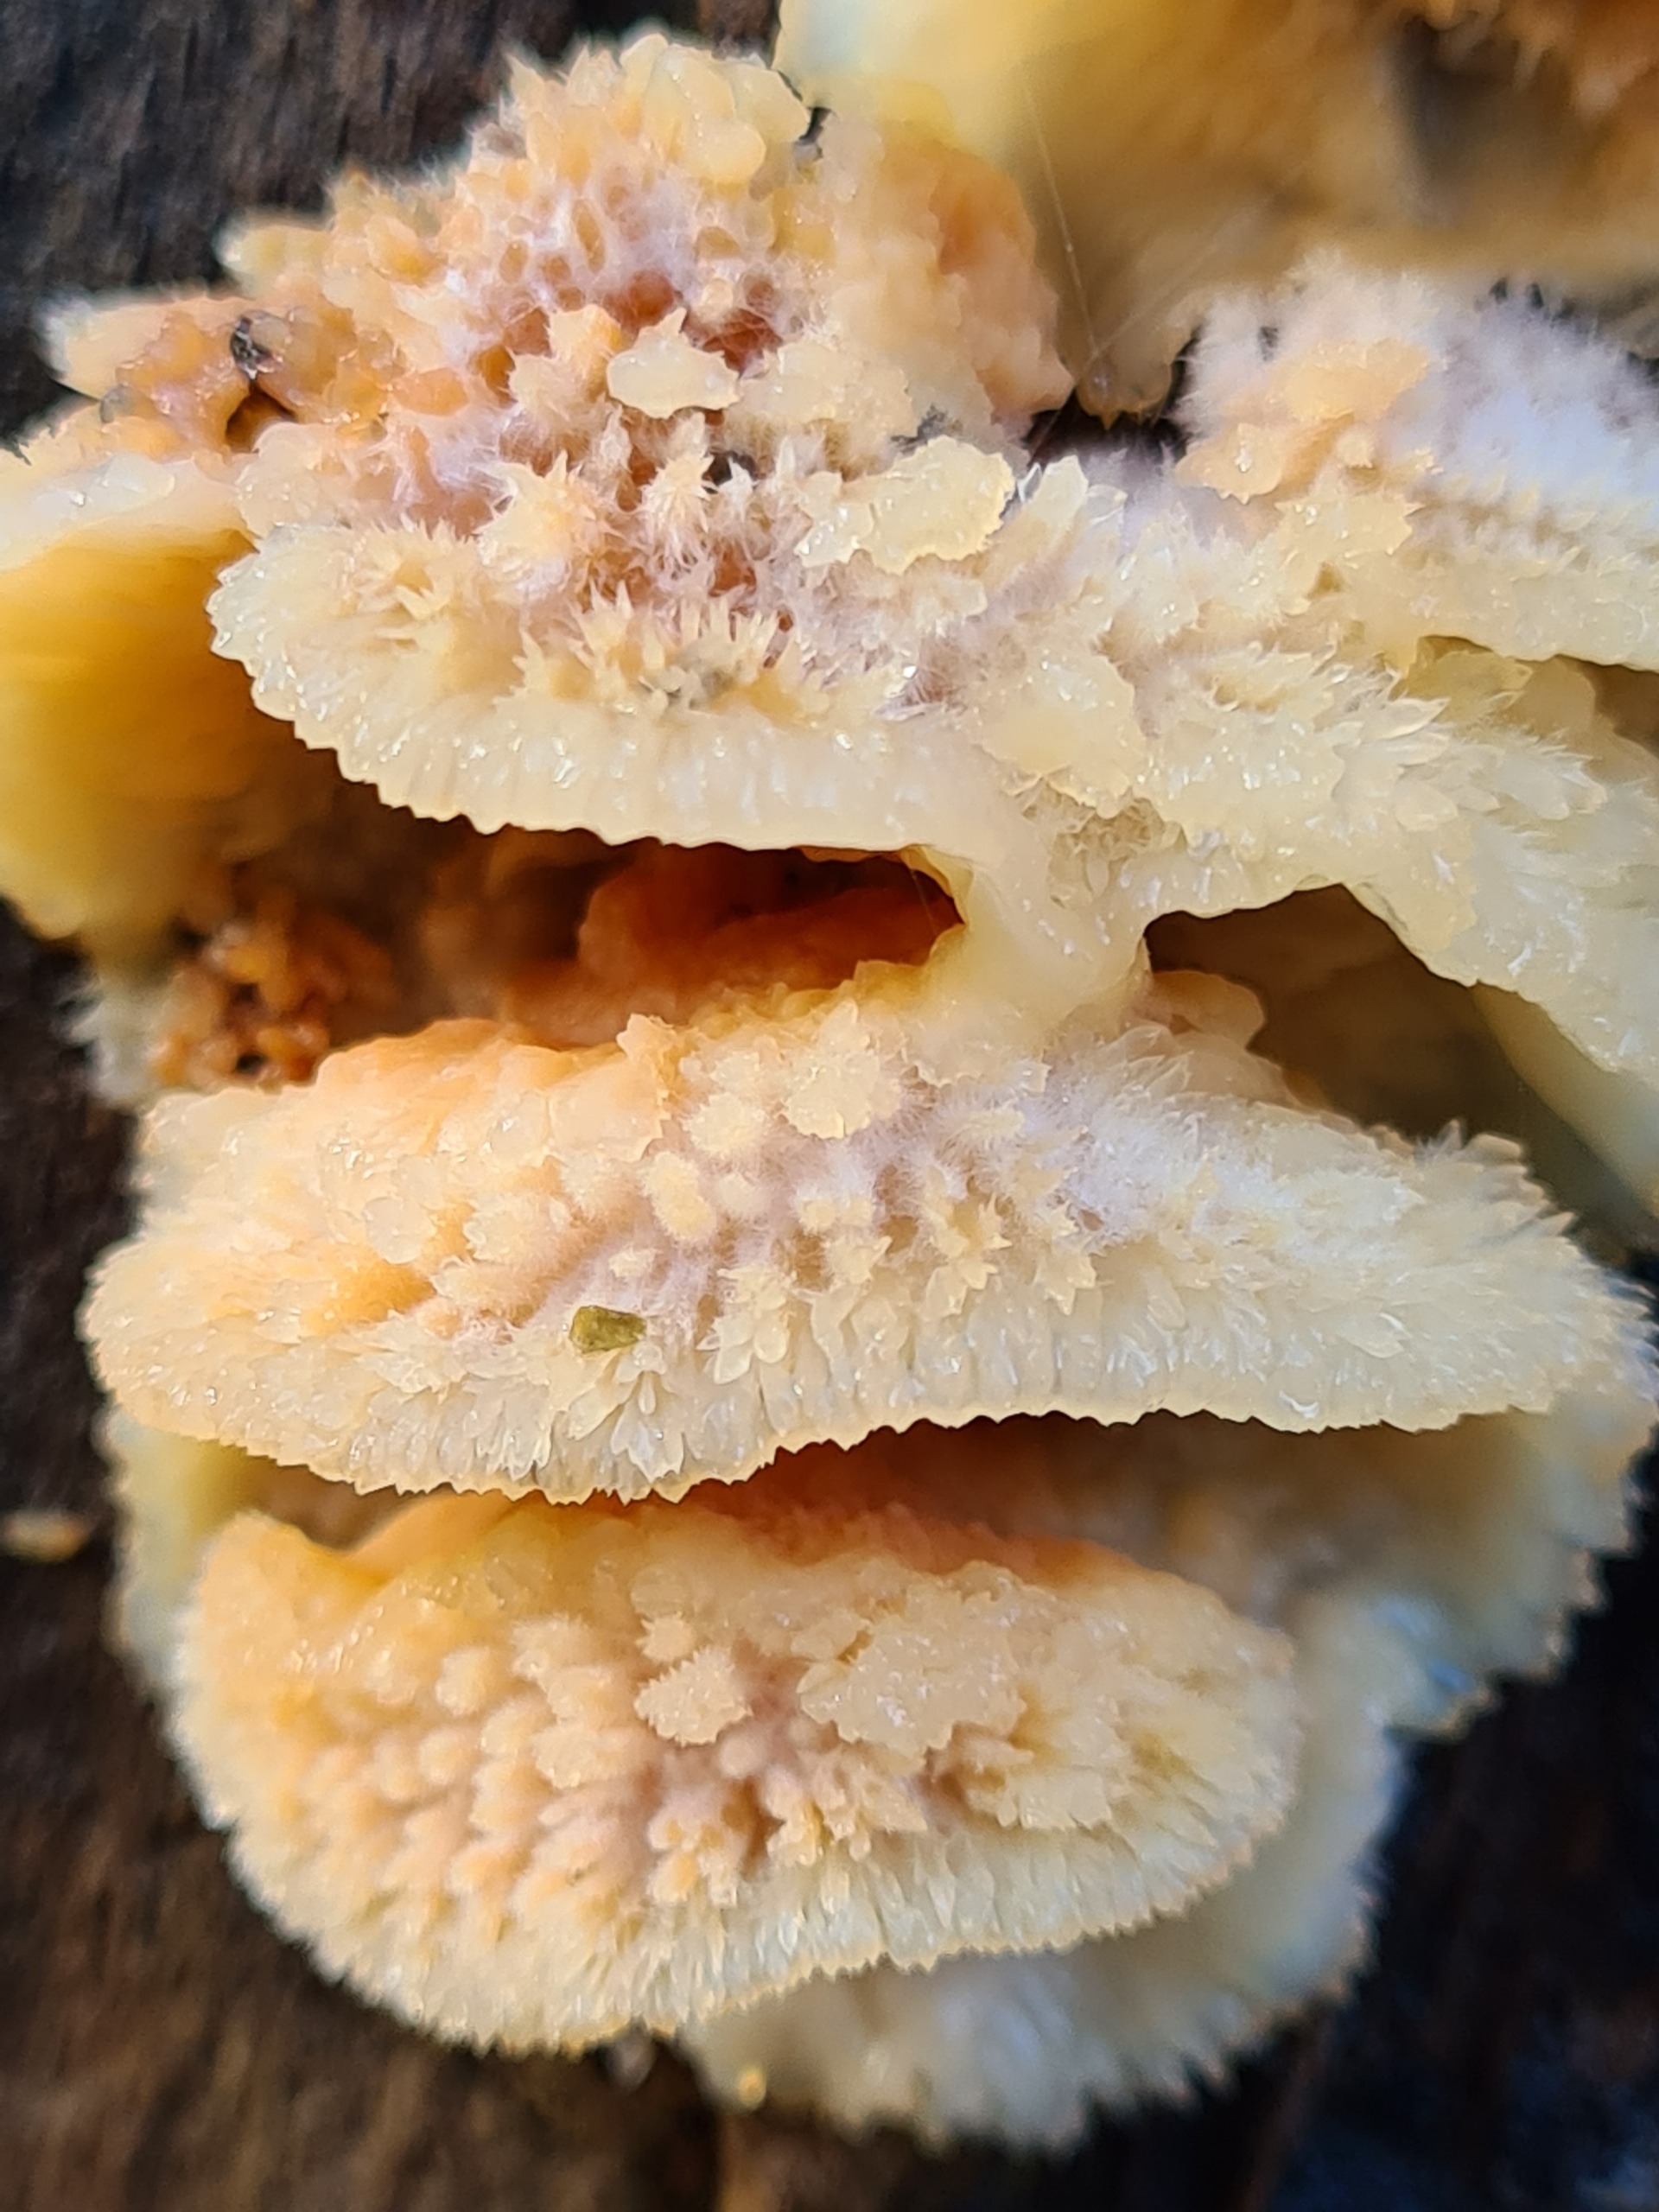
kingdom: Fungi
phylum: Basidiomycota
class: Agaricomycetes
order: Polyporales
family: Meruliaceae
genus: Phlebia
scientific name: Phlebia tremellosa
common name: Bævrende åresvamp
